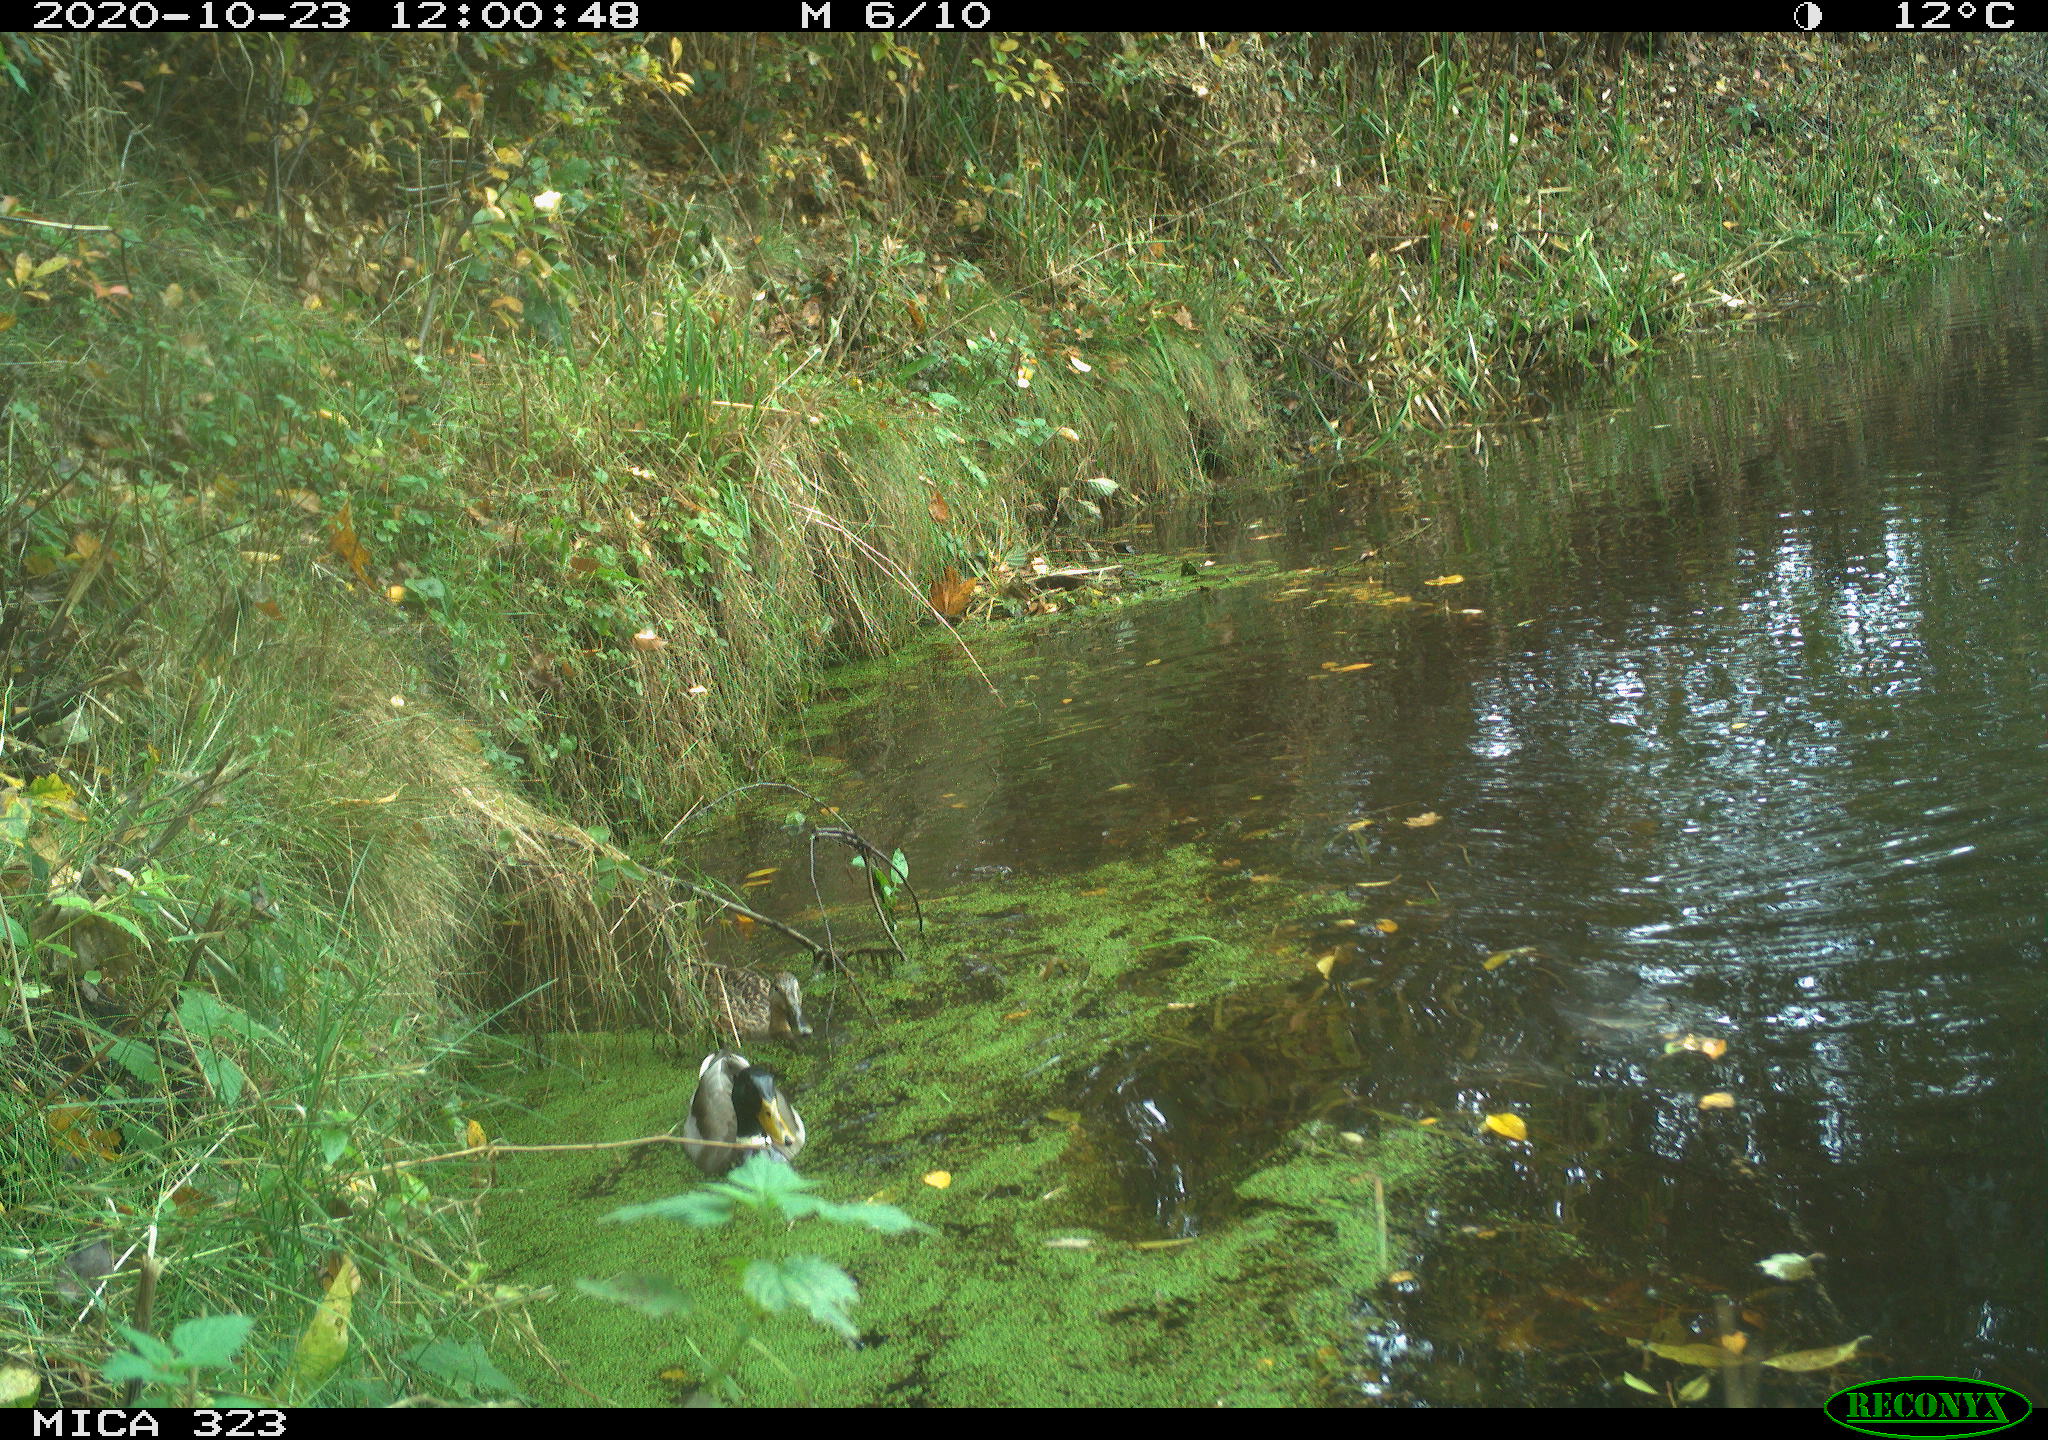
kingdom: Animalia
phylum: Chordata
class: Aves
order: Anseriformes
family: Anatidae
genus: Anas
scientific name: Anas platyrhynchos
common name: Mallard
